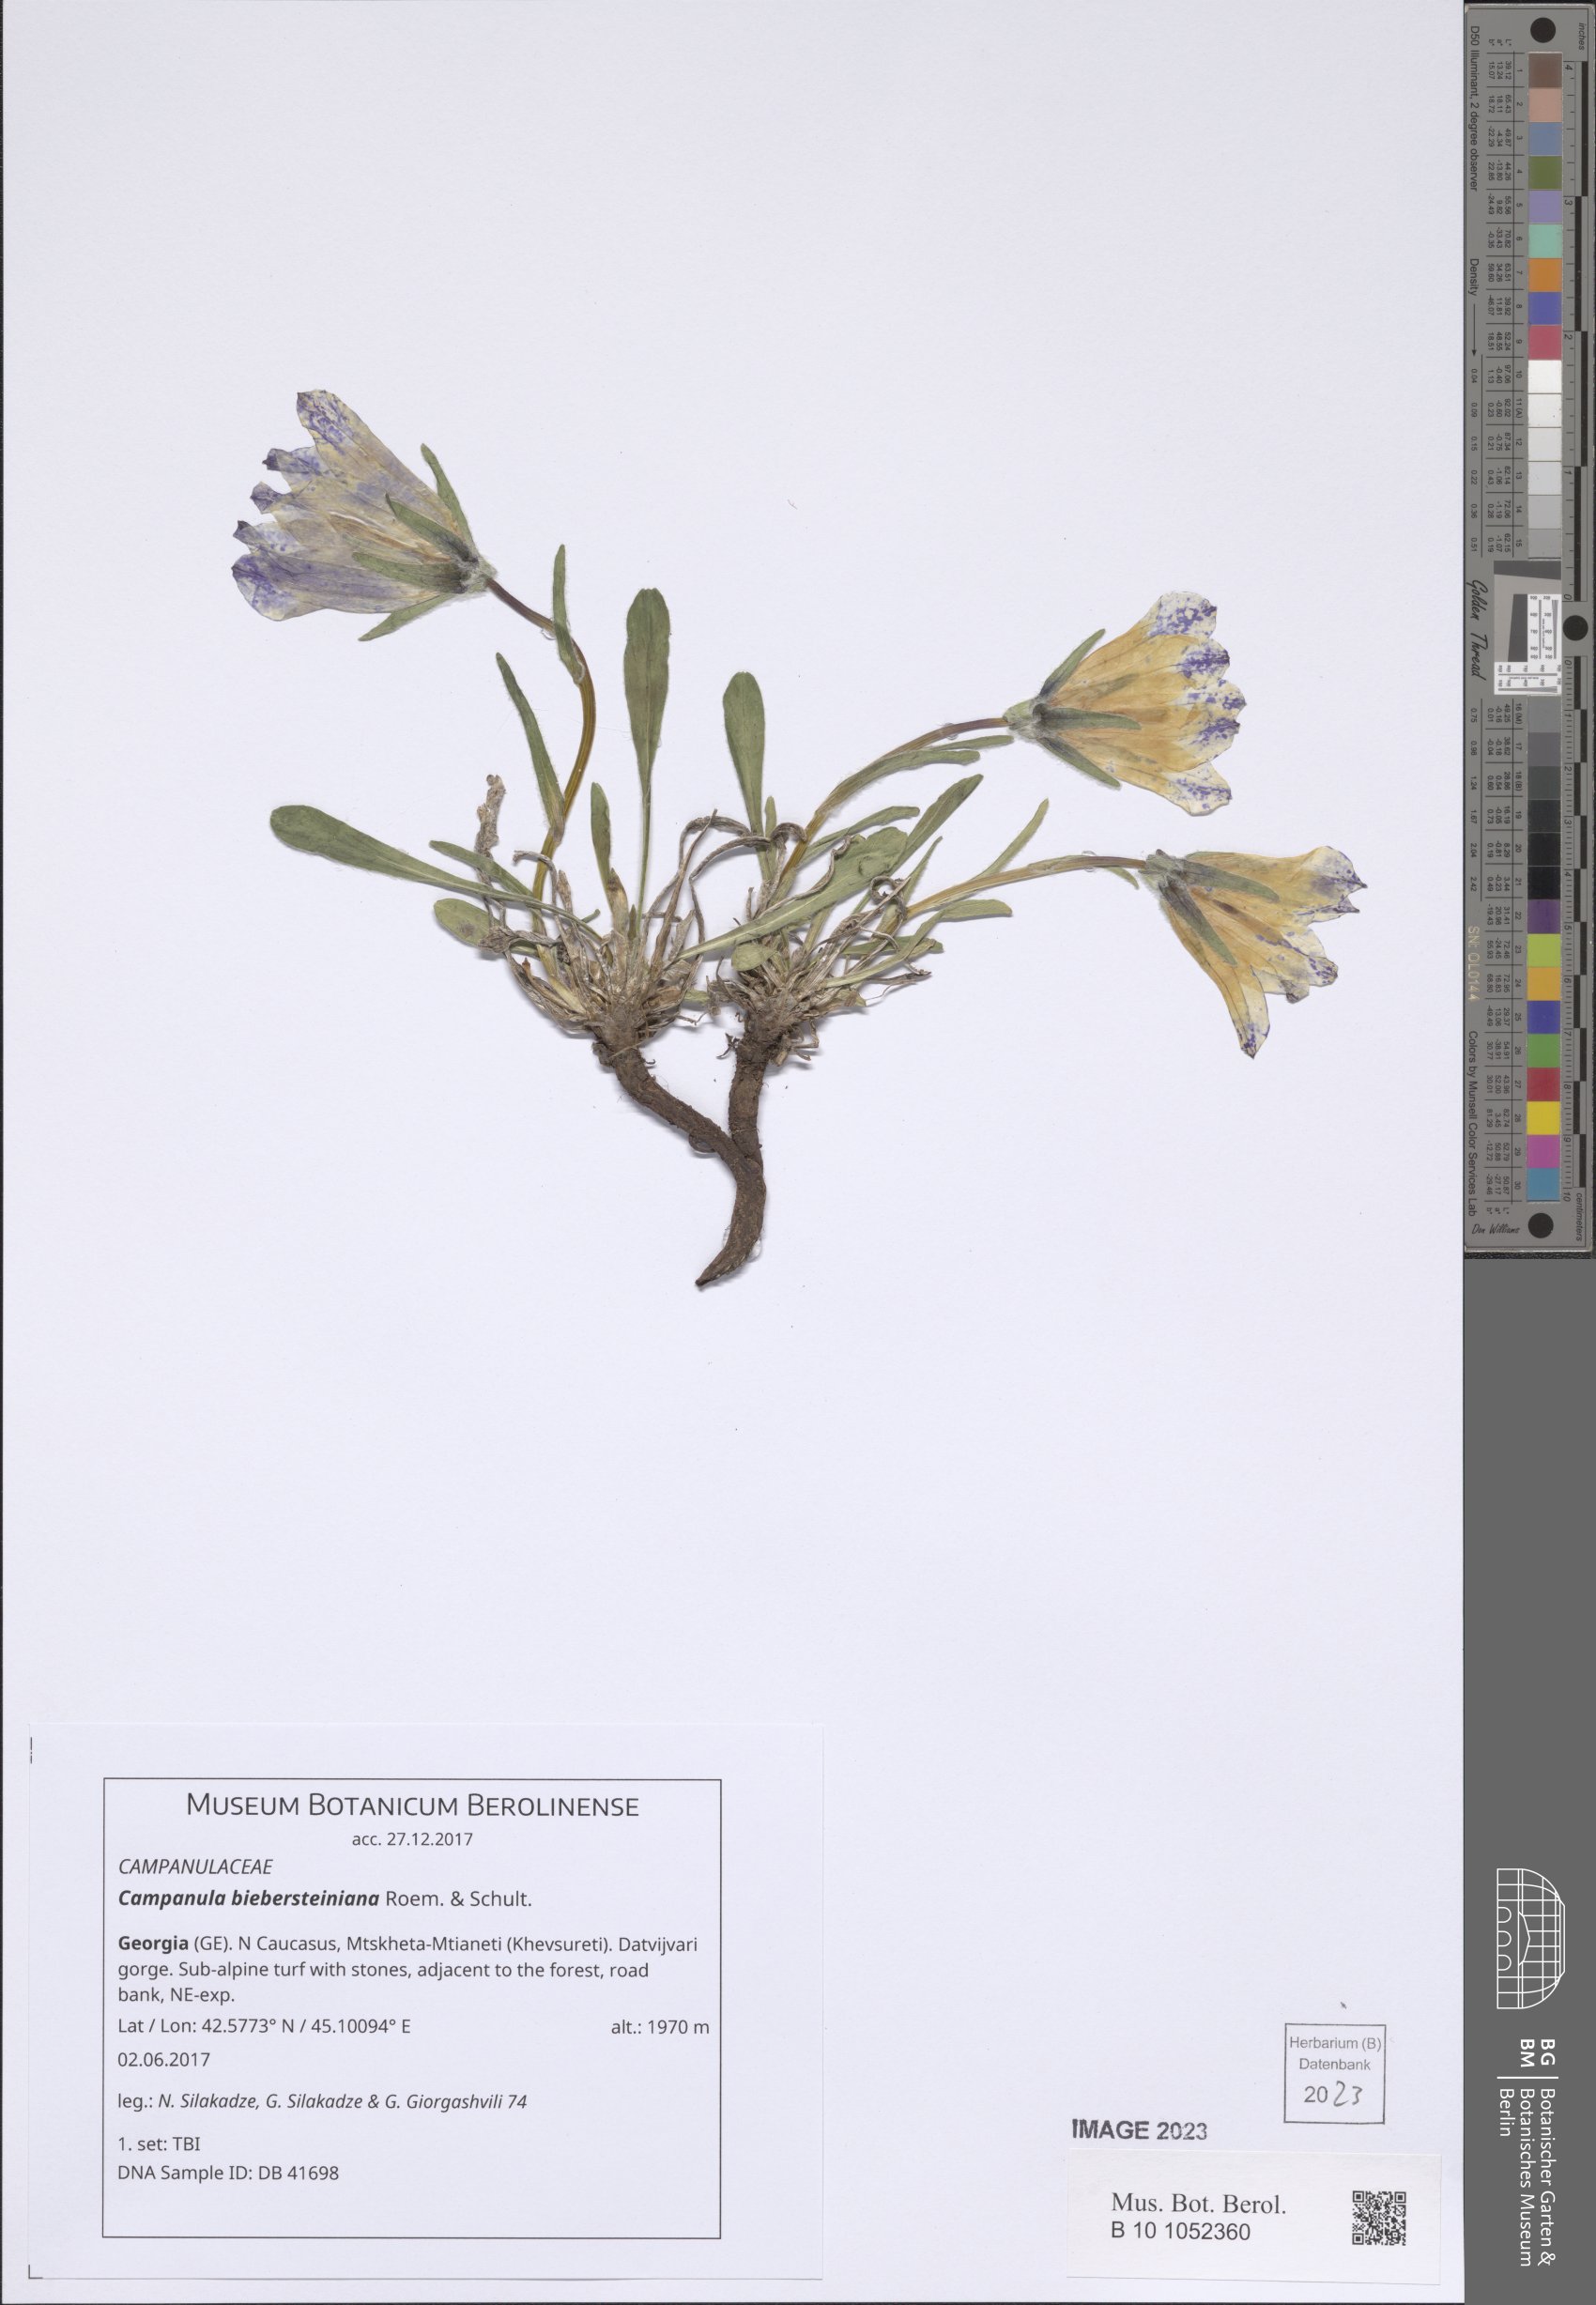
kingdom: Plantae
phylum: Tracheophyta
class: Magnoliopsida
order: Asterales
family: Campanulaceae
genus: Campanula
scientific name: Campanula tridentata
